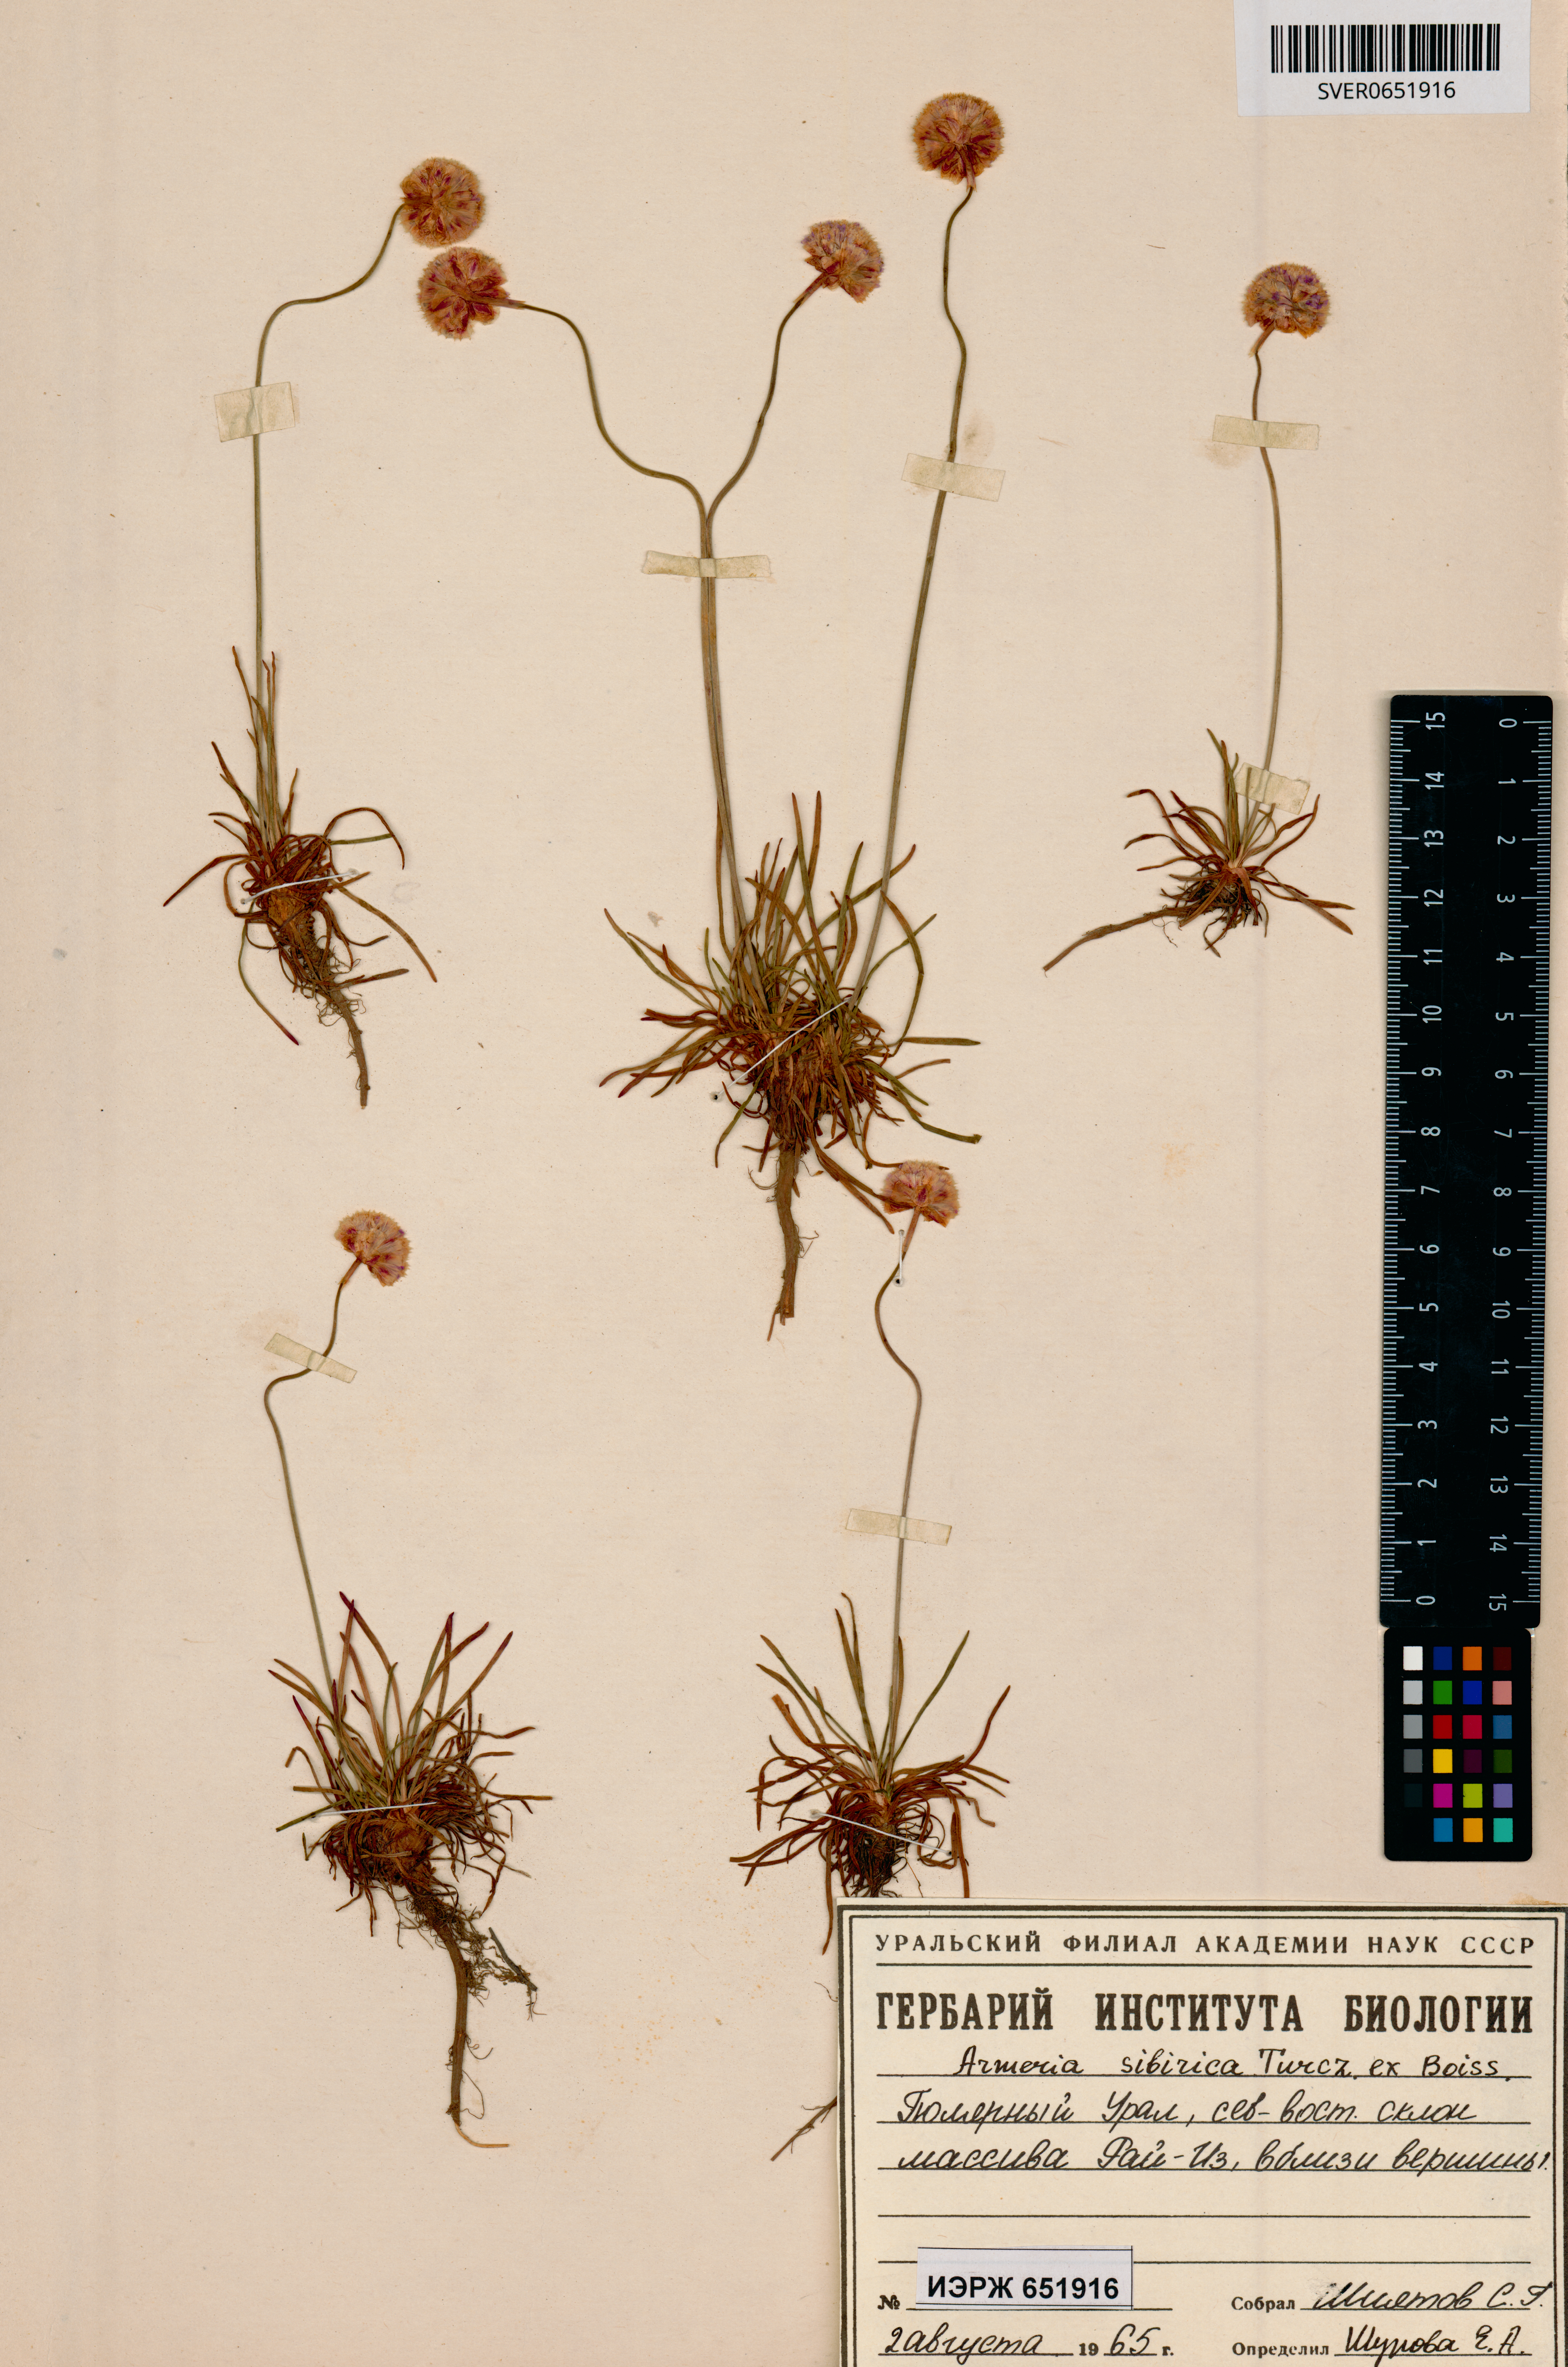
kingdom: Plantae
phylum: Tracheophyta
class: Magnoliopsida
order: Caryophyllales
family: Plumbaginaceae
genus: Armeria
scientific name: Armeria maritima
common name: Thrift
